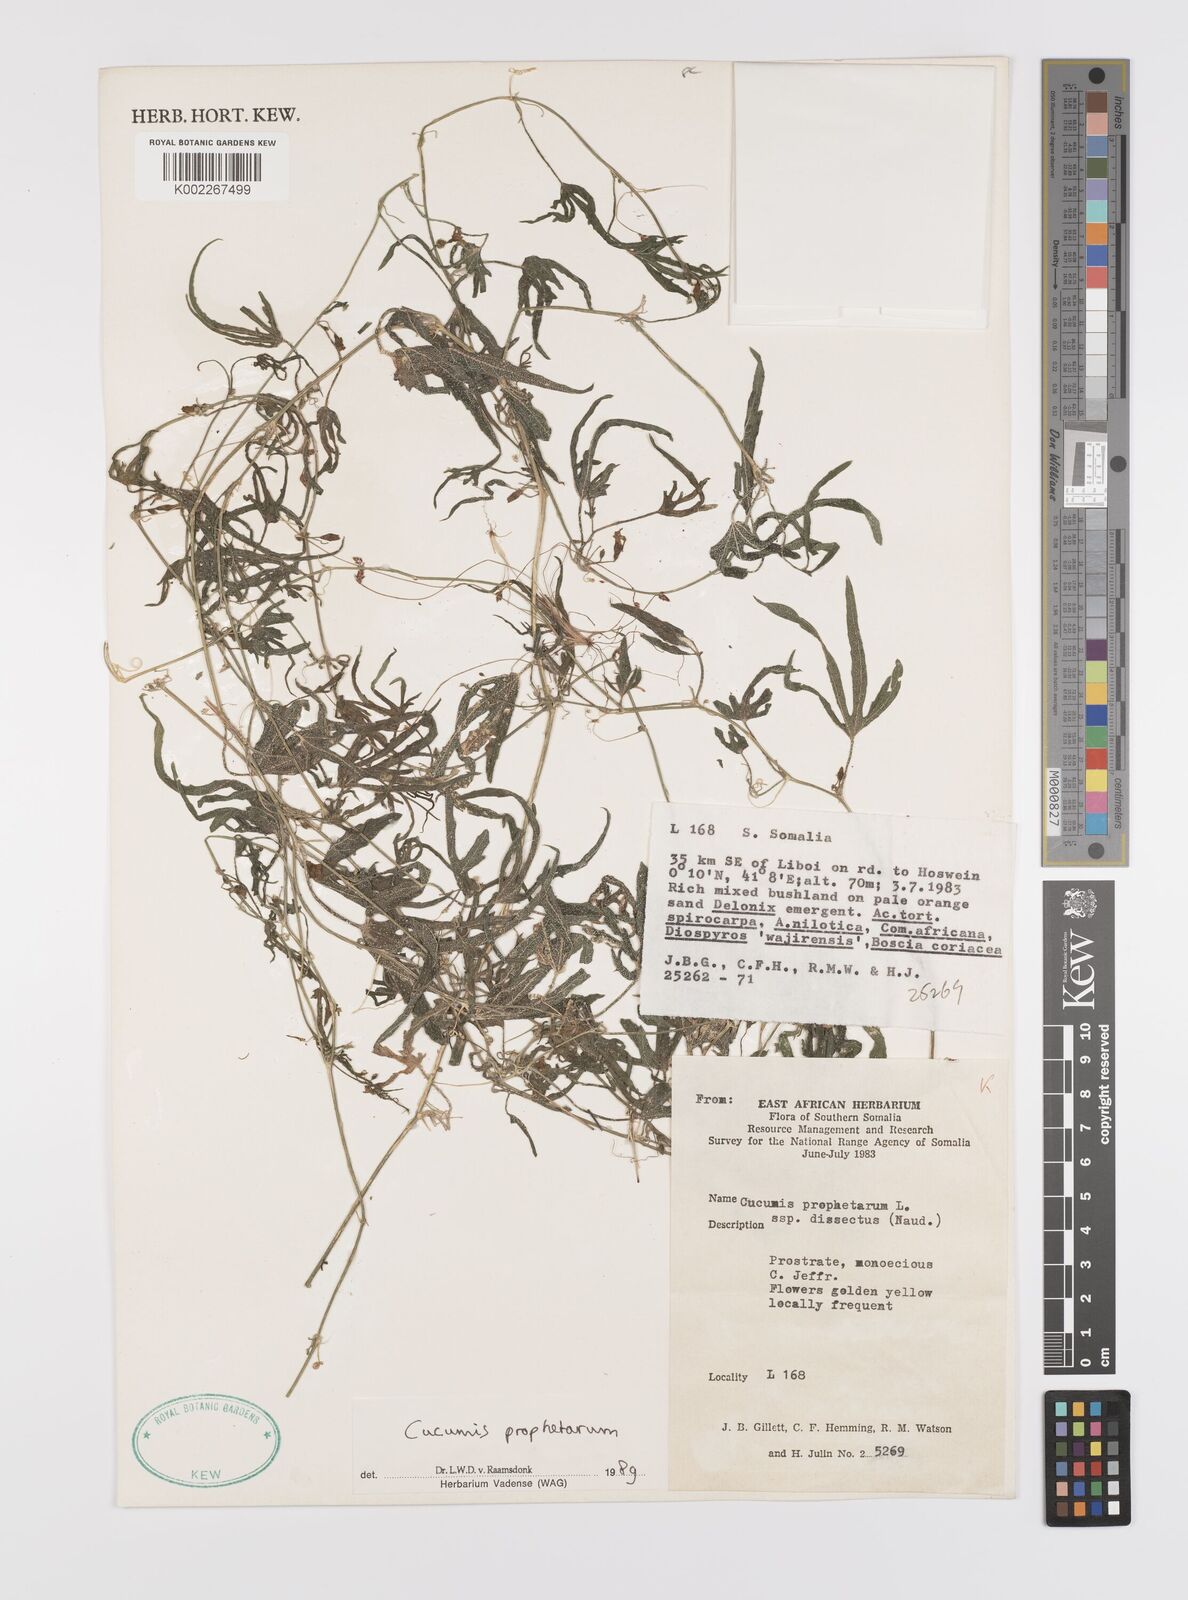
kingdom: Plantae
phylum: Tracheophyta
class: Magnoliopsida
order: Cucurbitales
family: Cucurbitaceae
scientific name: Cucurbitaceae
